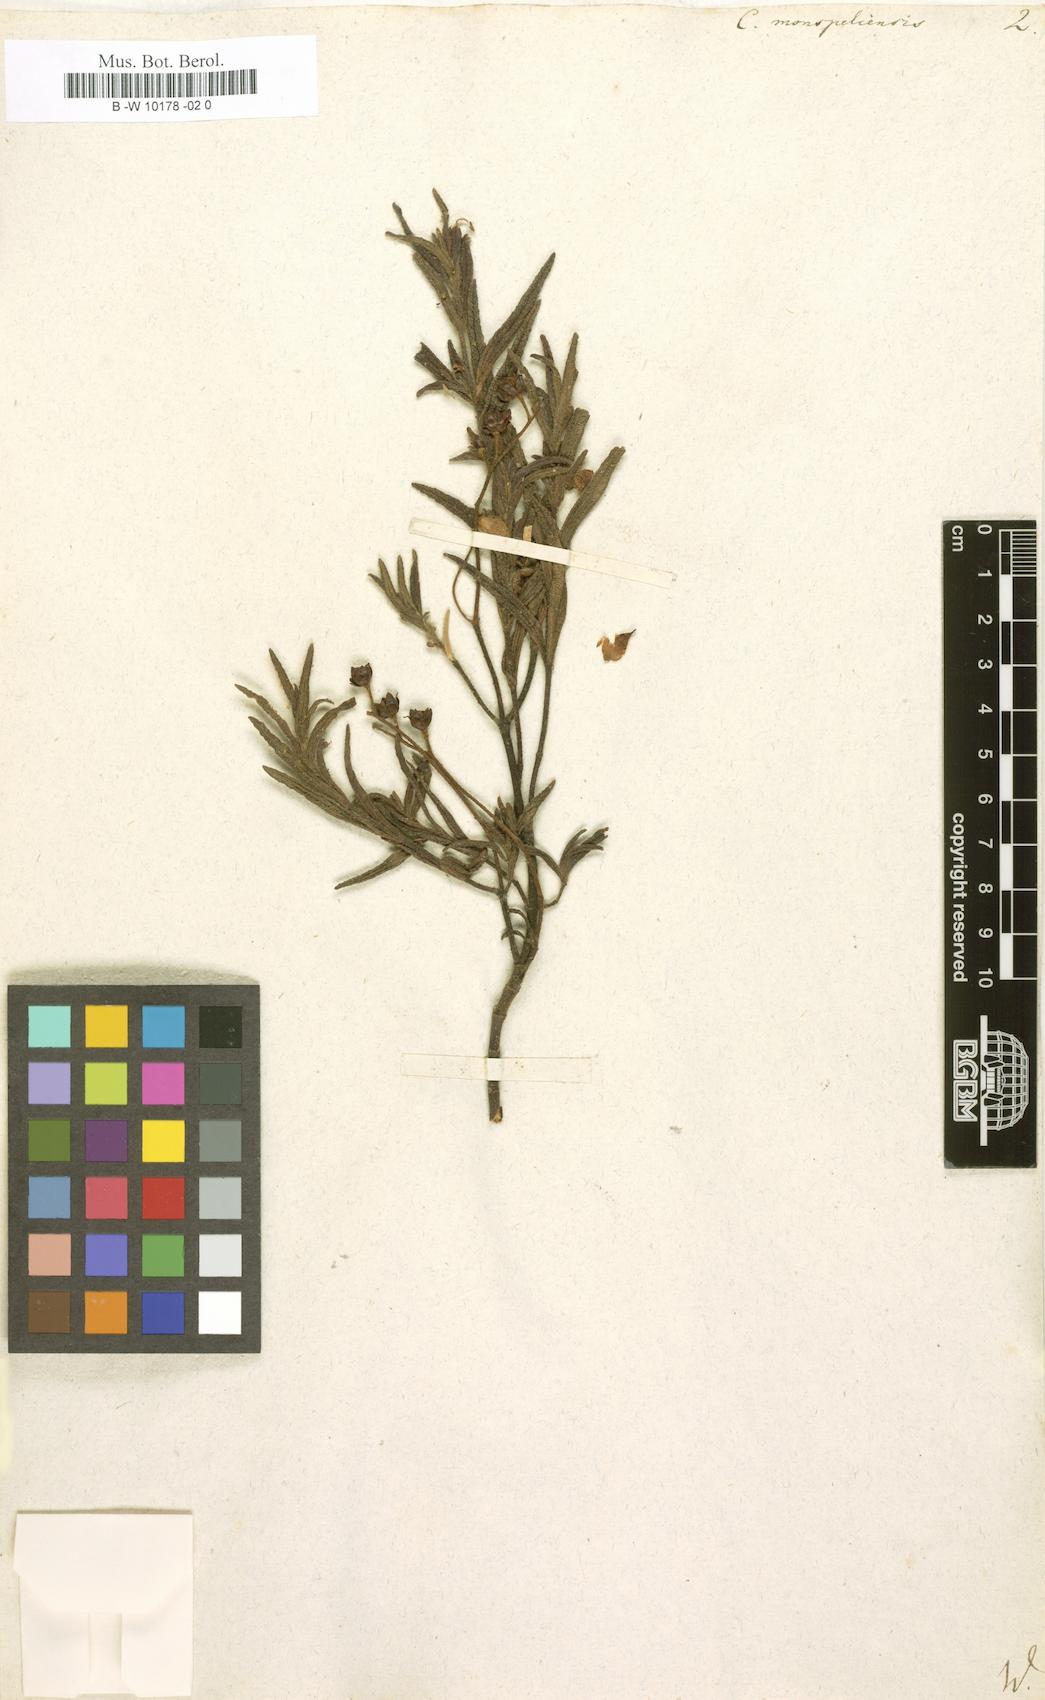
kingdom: Plantae
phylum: Tracheophyta
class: Magnoliopsida
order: Malvales
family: Cistaceae
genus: Cistus
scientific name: Cistus monspeliensis
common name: Montpelier cistus
